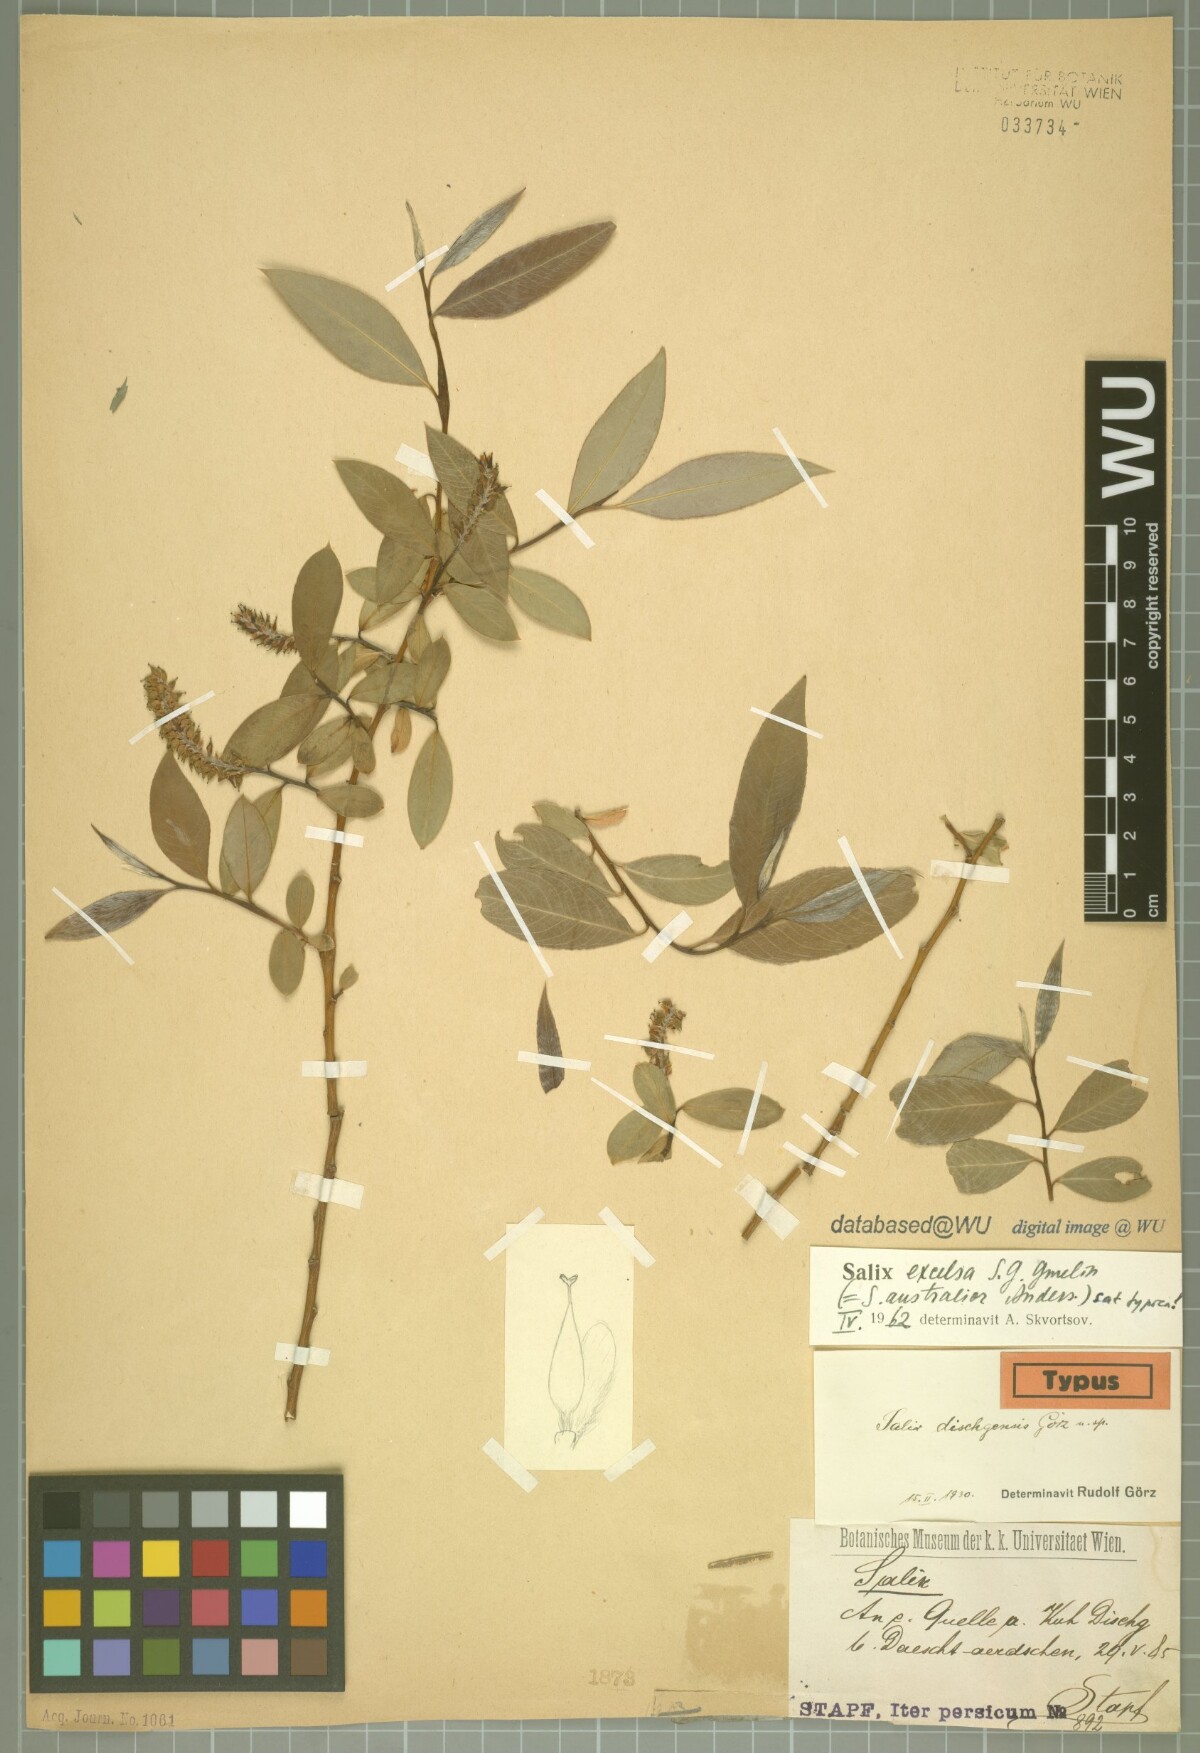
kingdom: Plantae
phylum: Tracheophyta
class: Magnoliopsida
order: Malpighiales
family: Salicaceae
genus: Salix
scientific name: Salix excelsa
